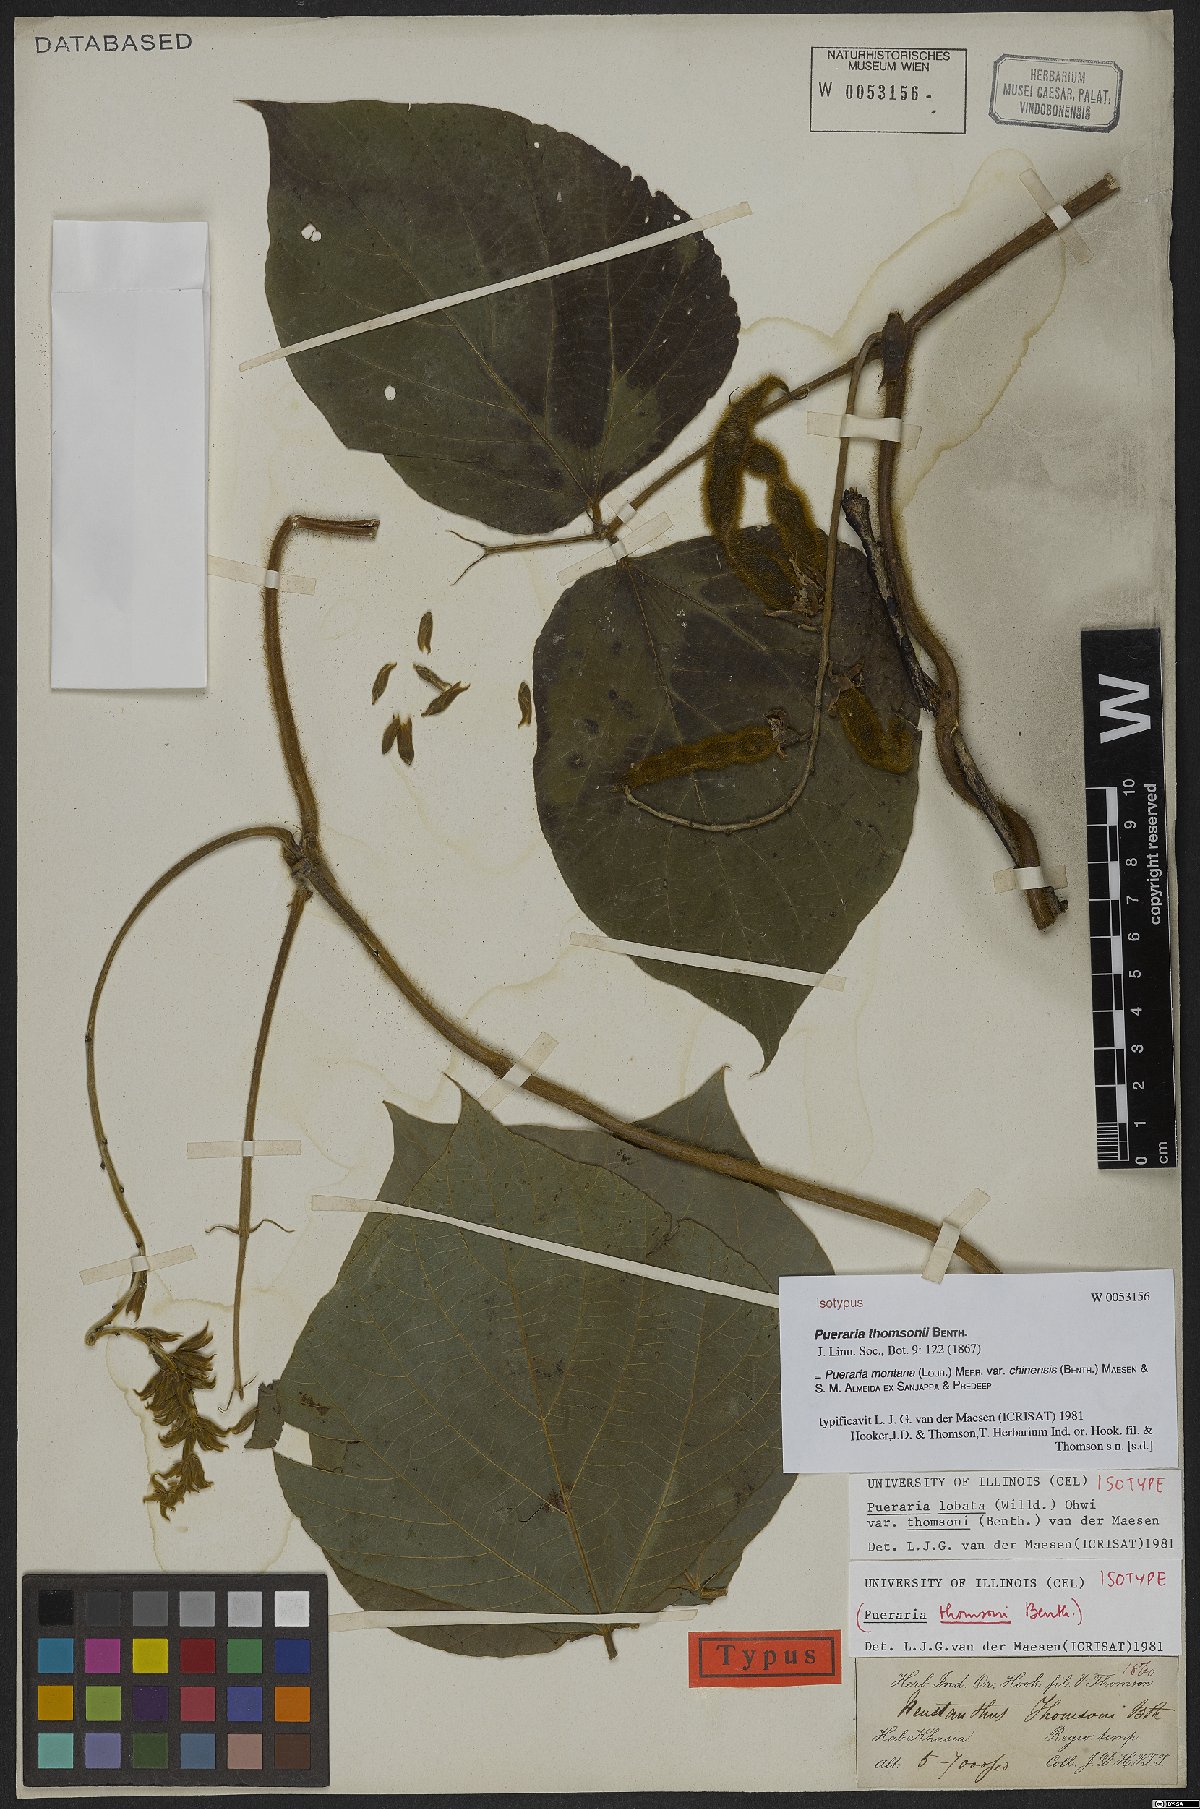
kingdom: Plantae
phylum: Tracheophyta
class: Magnoliopsida
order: Fabales
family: Fabaceae
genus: Pueraria
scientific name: Pueraria montana
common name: Kudzu
